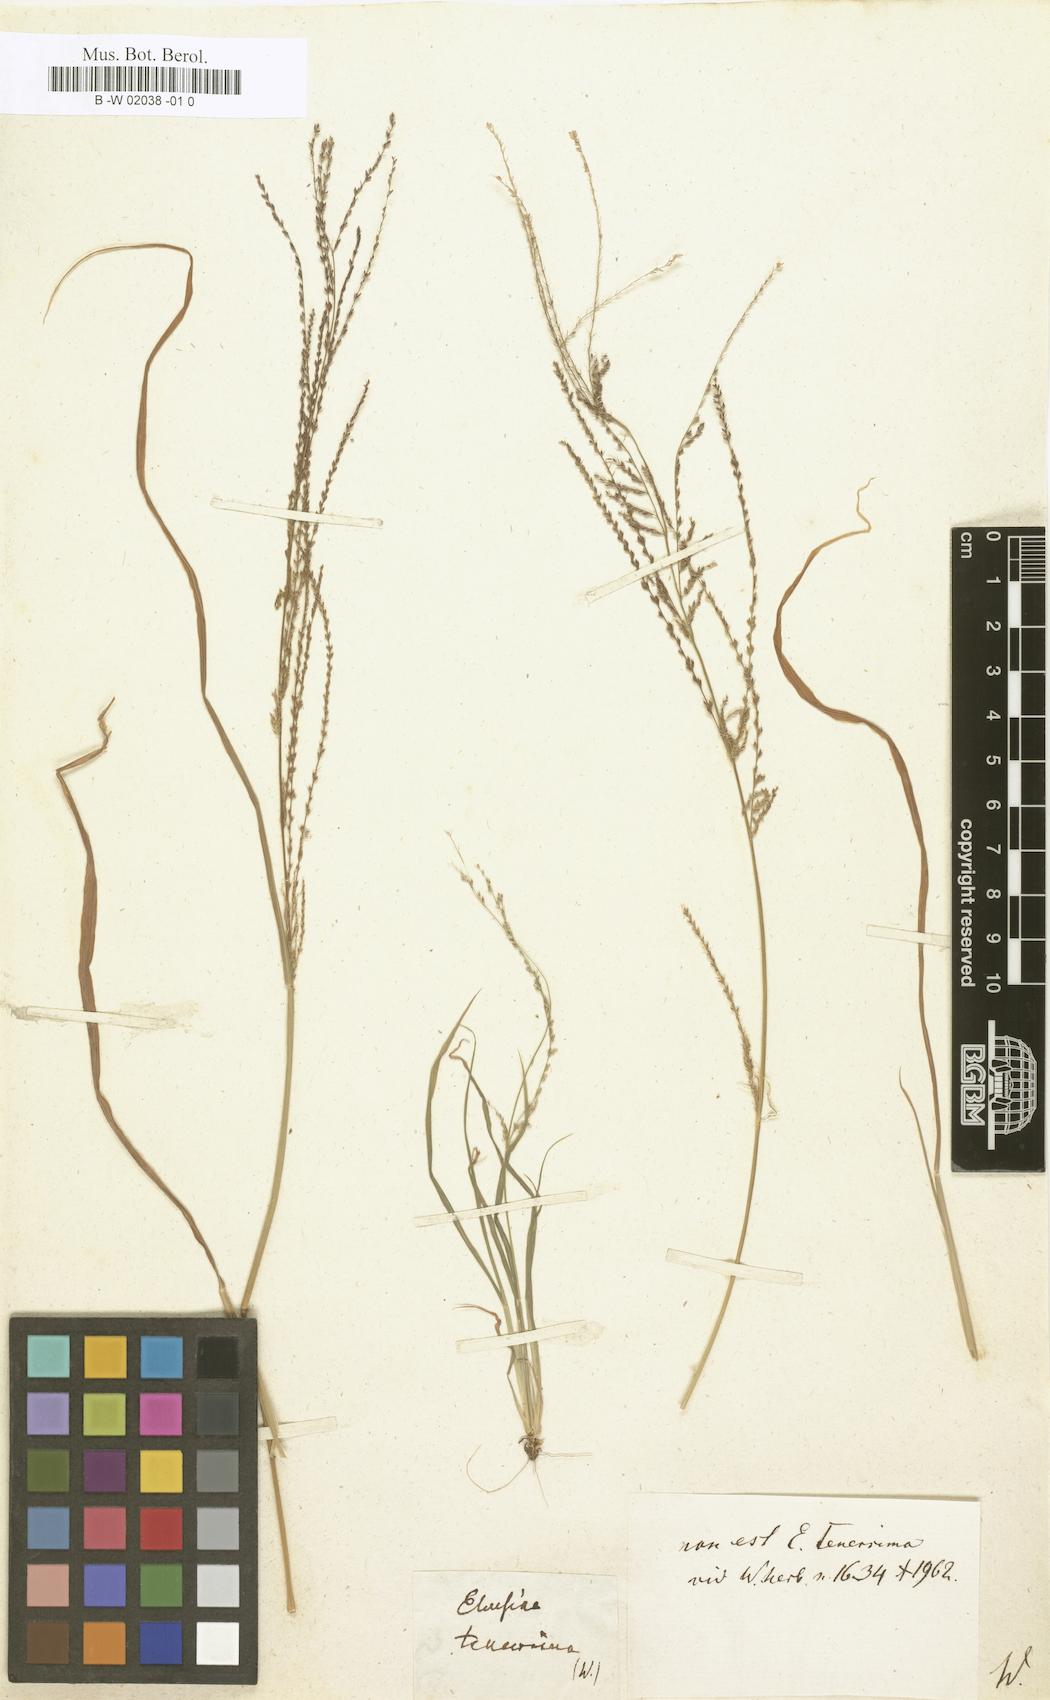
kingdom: Plantae
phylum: Tracheophyta
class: Liliopsida
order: Poales
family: Poaceae
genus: Leptochloa
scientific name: Leptochloa panicea
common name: Mucronate sprangletop
